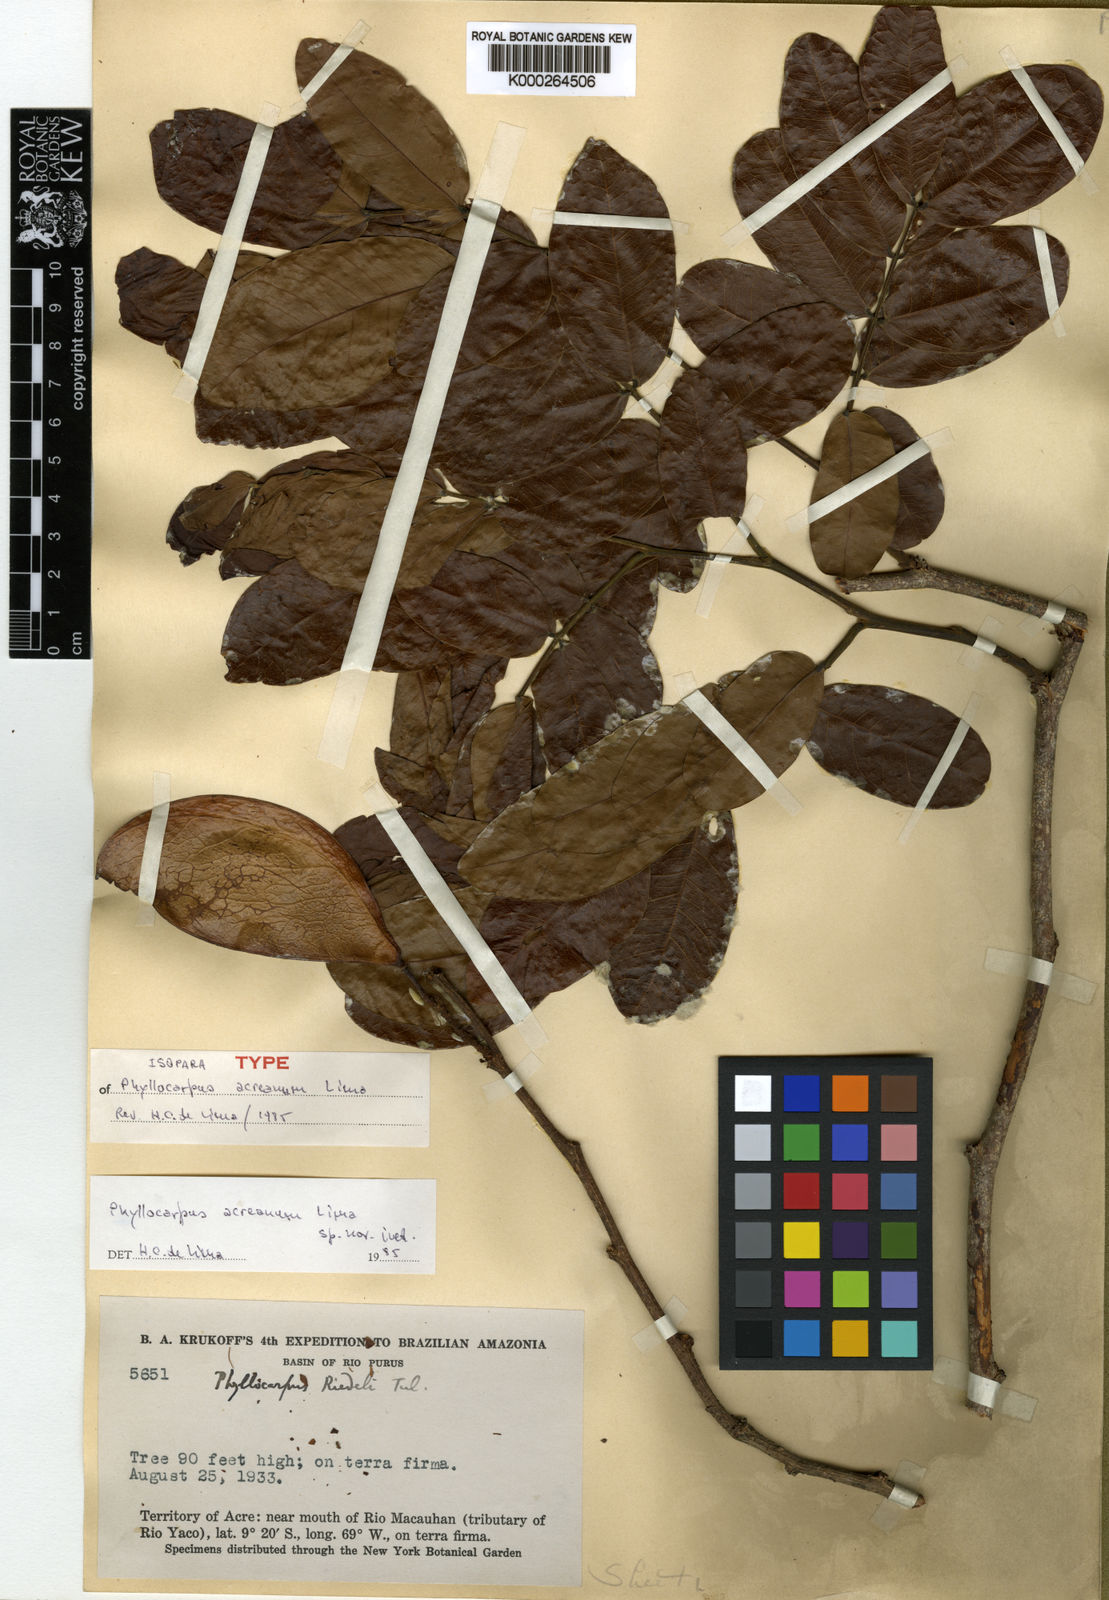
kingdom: Plantae
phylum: Tracheophyta
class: Magnoliopsida
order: Fabales
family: Fabaceae
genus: Barnebydendron
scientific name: Barnebydendron riedelii
